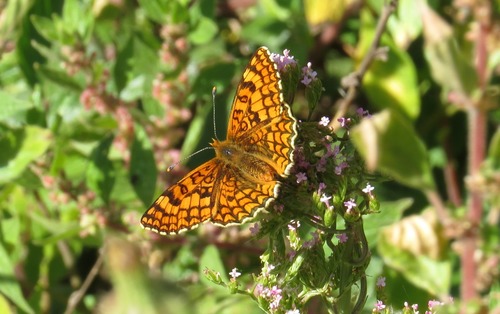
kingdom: Animalia
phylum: Arthropoda
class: Insecta
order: Lepidoptera
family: Nymphalidae
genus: Melitaea
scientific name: Melitaea deione
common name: Provençal fritillary
